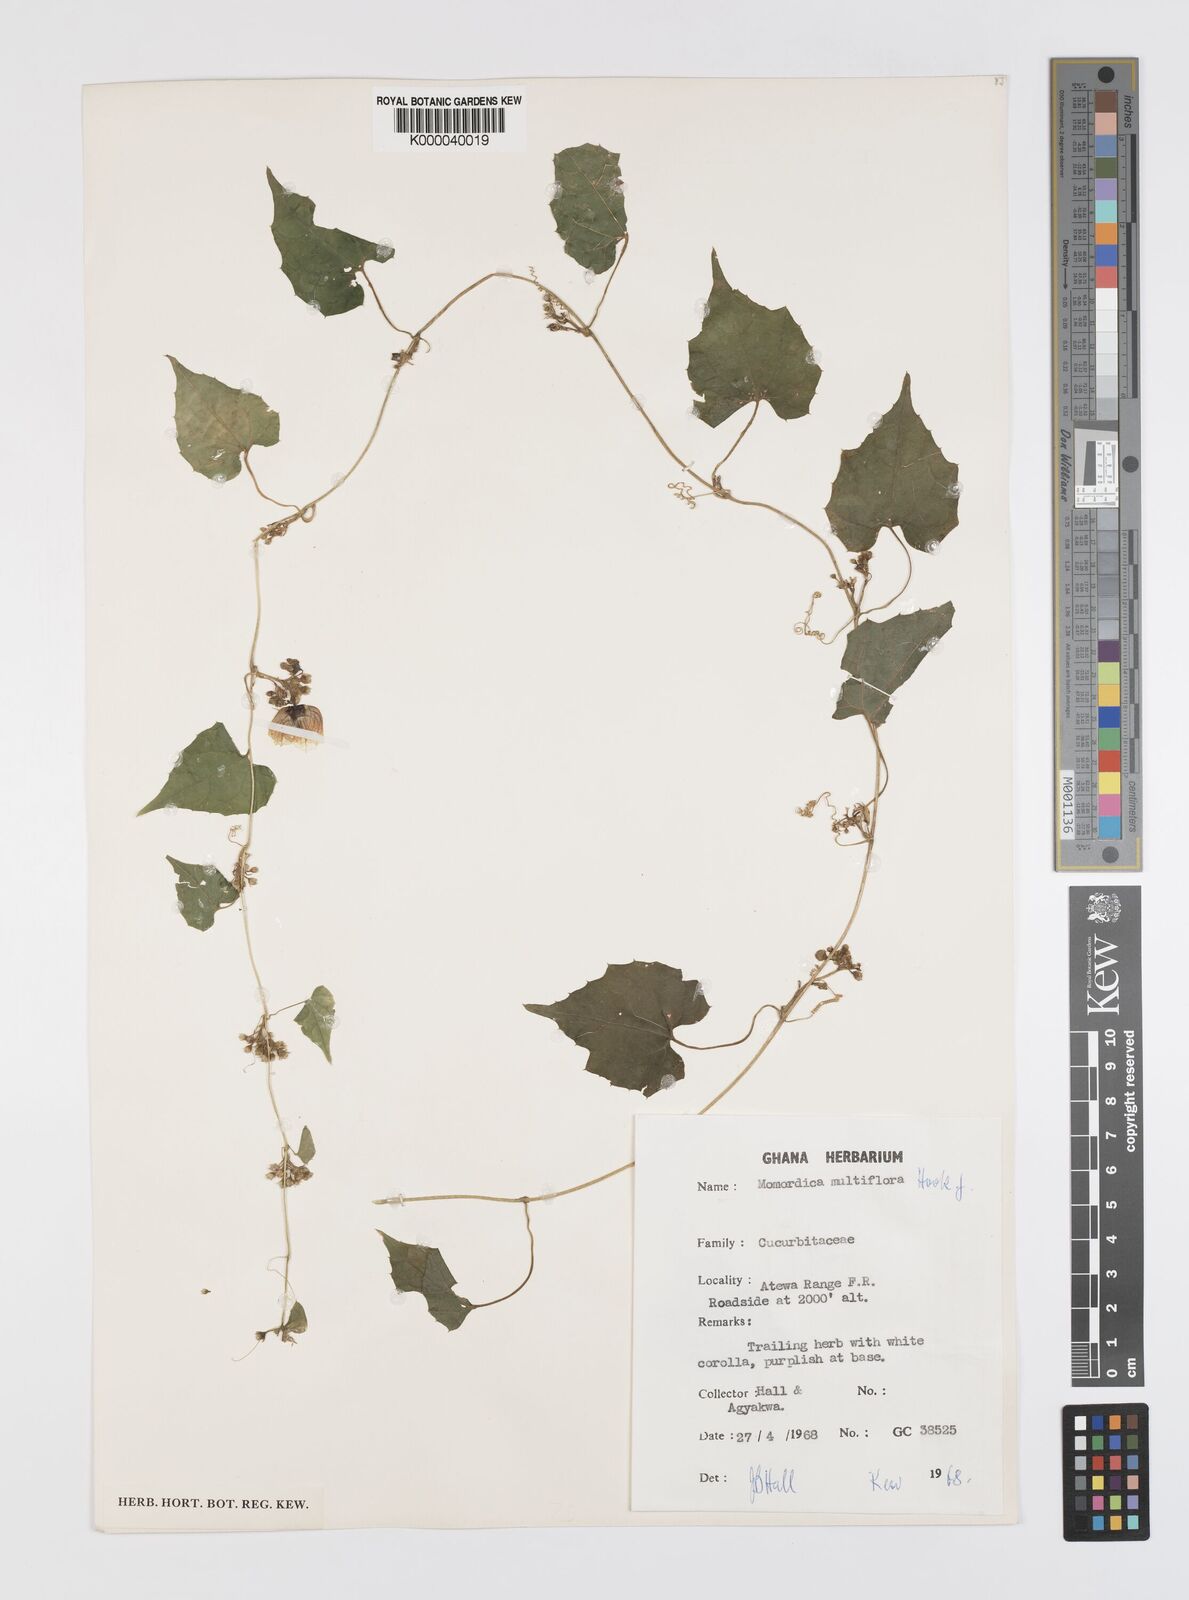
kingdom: Plantae
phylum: Tracheophyta
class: Magnoliopsida
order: Cucurbitales
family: Cucurbitaceae
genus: Momordica
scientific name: Momordica multiflora
